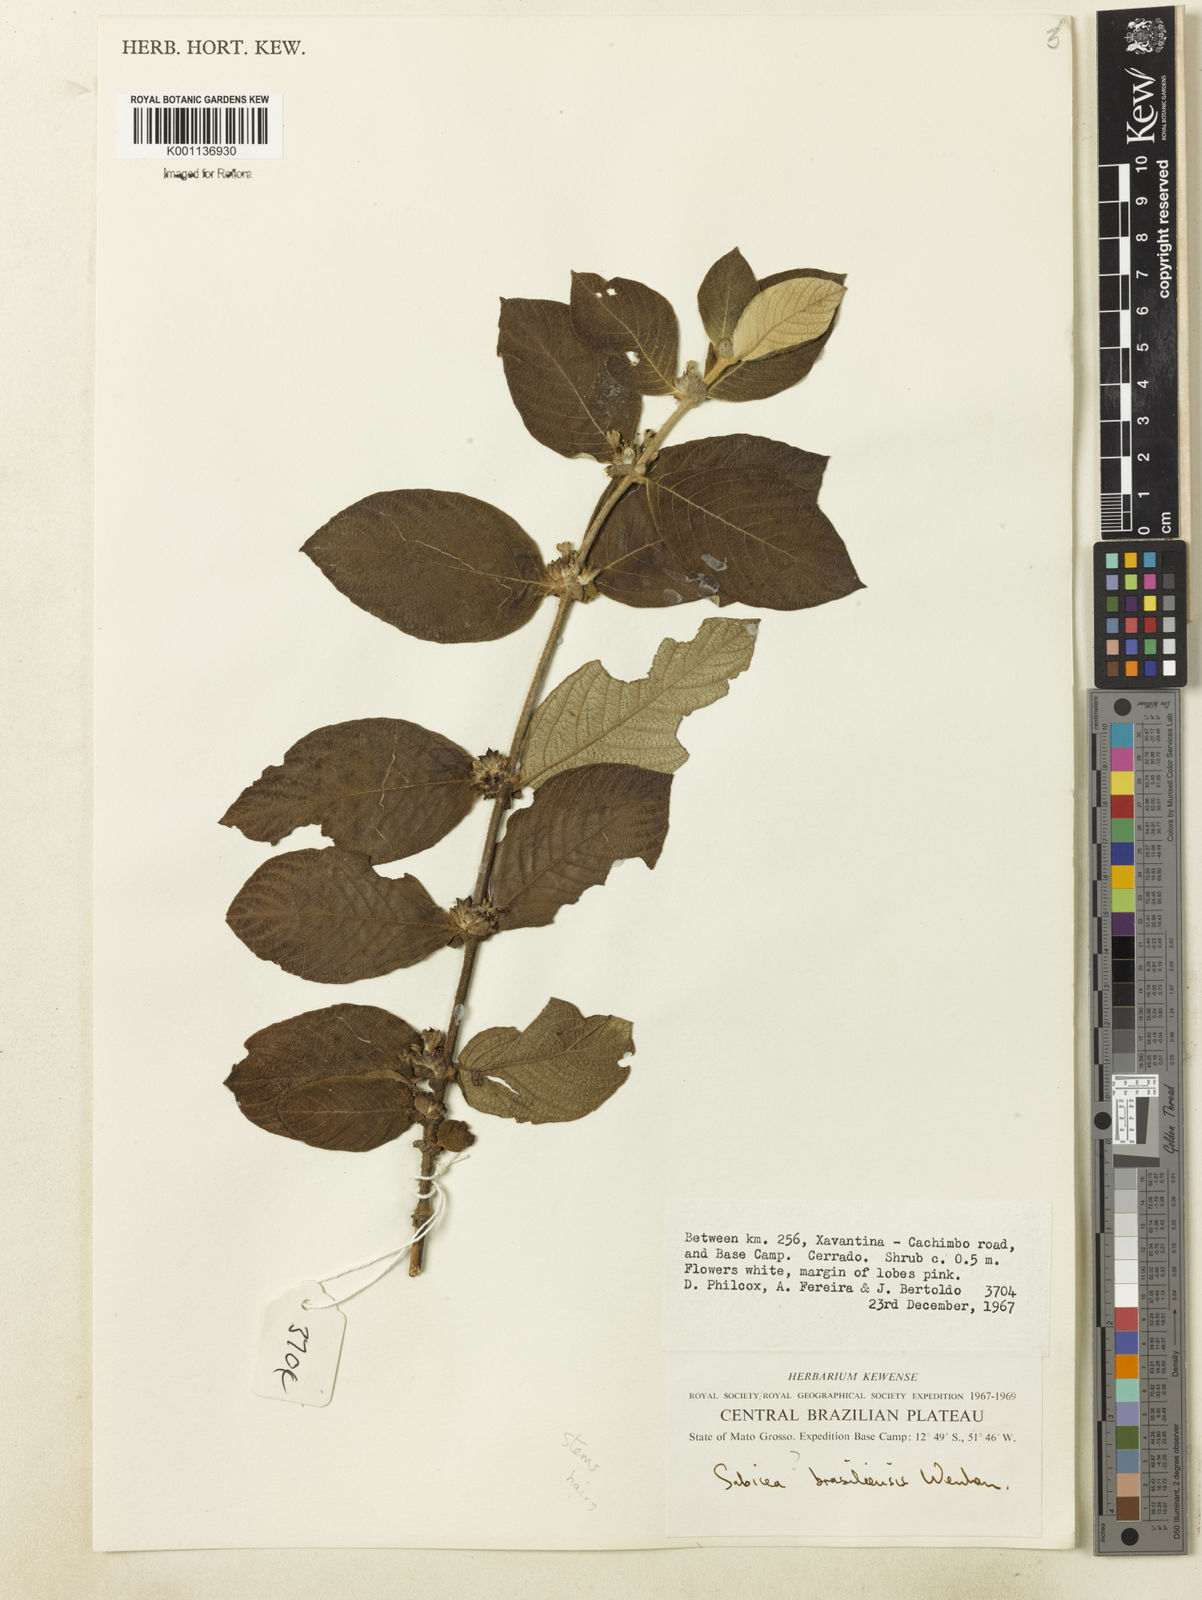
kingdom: Plantae
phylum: Tracheophyta
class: Magnoliopsida
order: Gentianales
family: Rubiaceae
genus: Sabicea
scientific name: Sabicea brasiliensis
